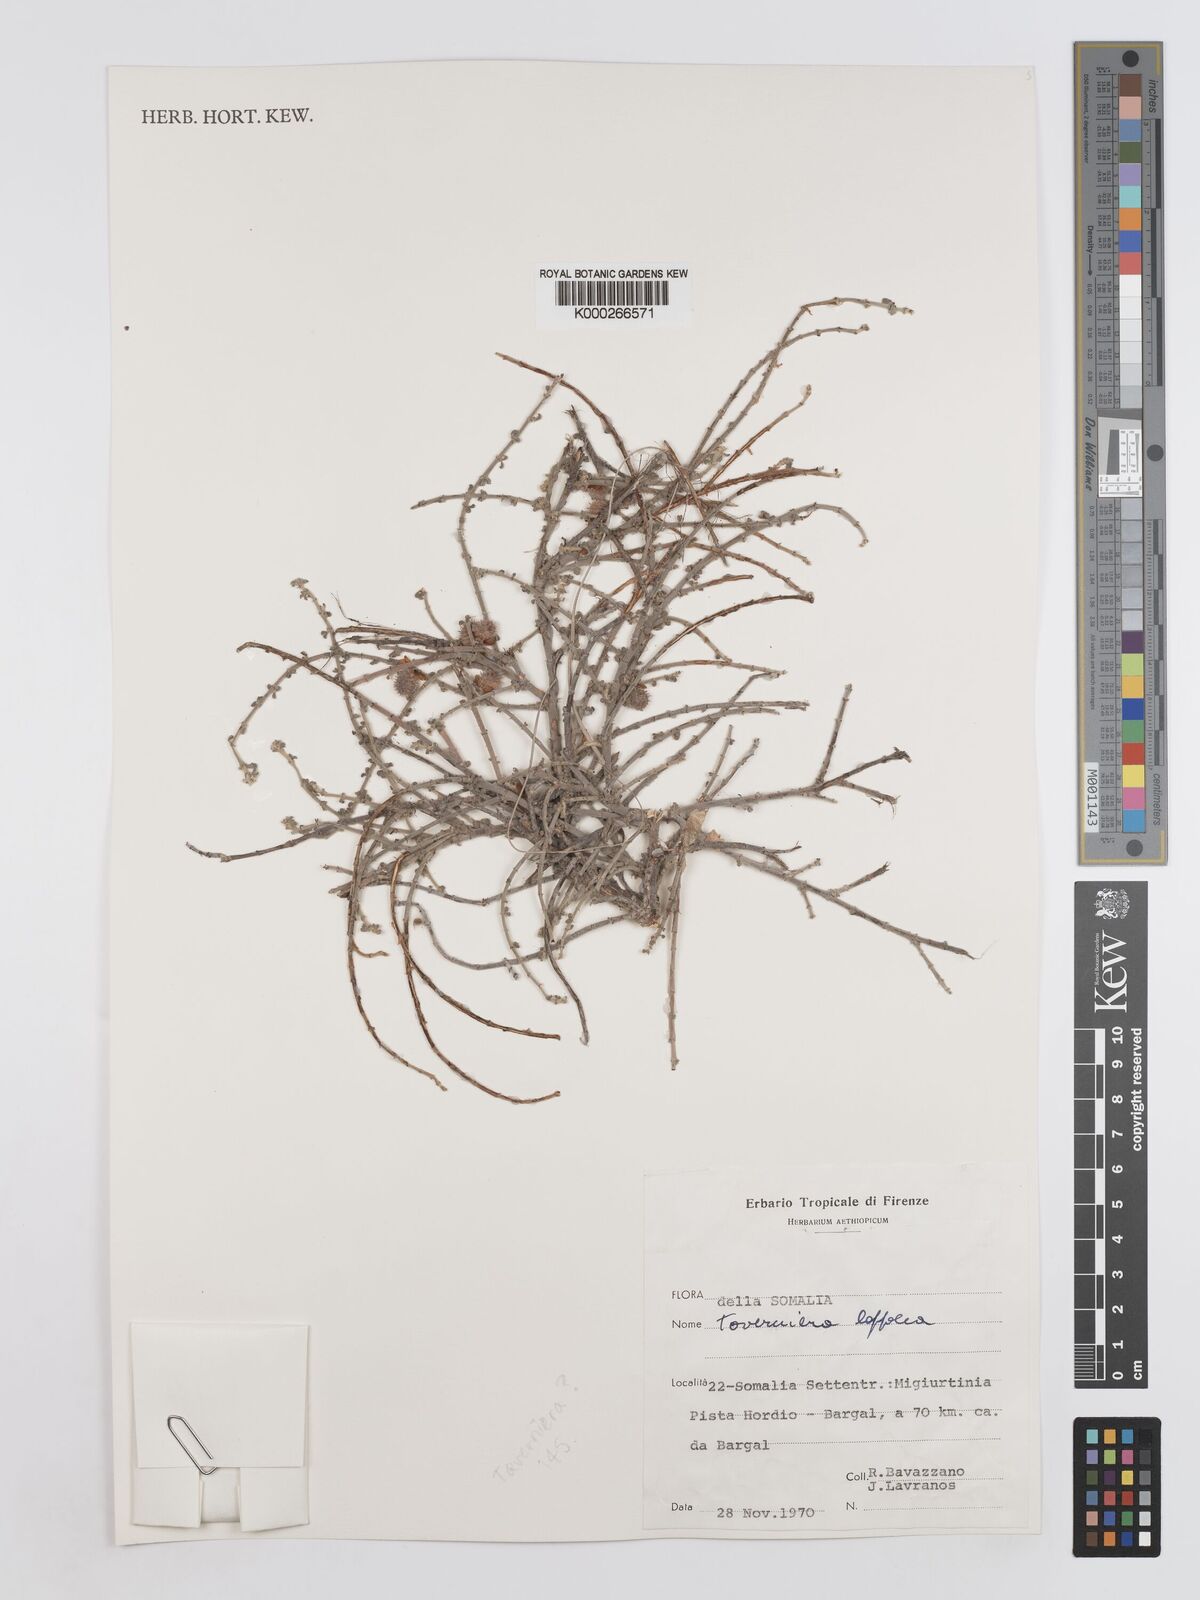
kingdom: Plantae
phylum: Tracheophyta
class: Magnoliopsida
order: Fabales
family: Fabaceae
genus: Taverniera
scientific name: Taverniera lappacea
